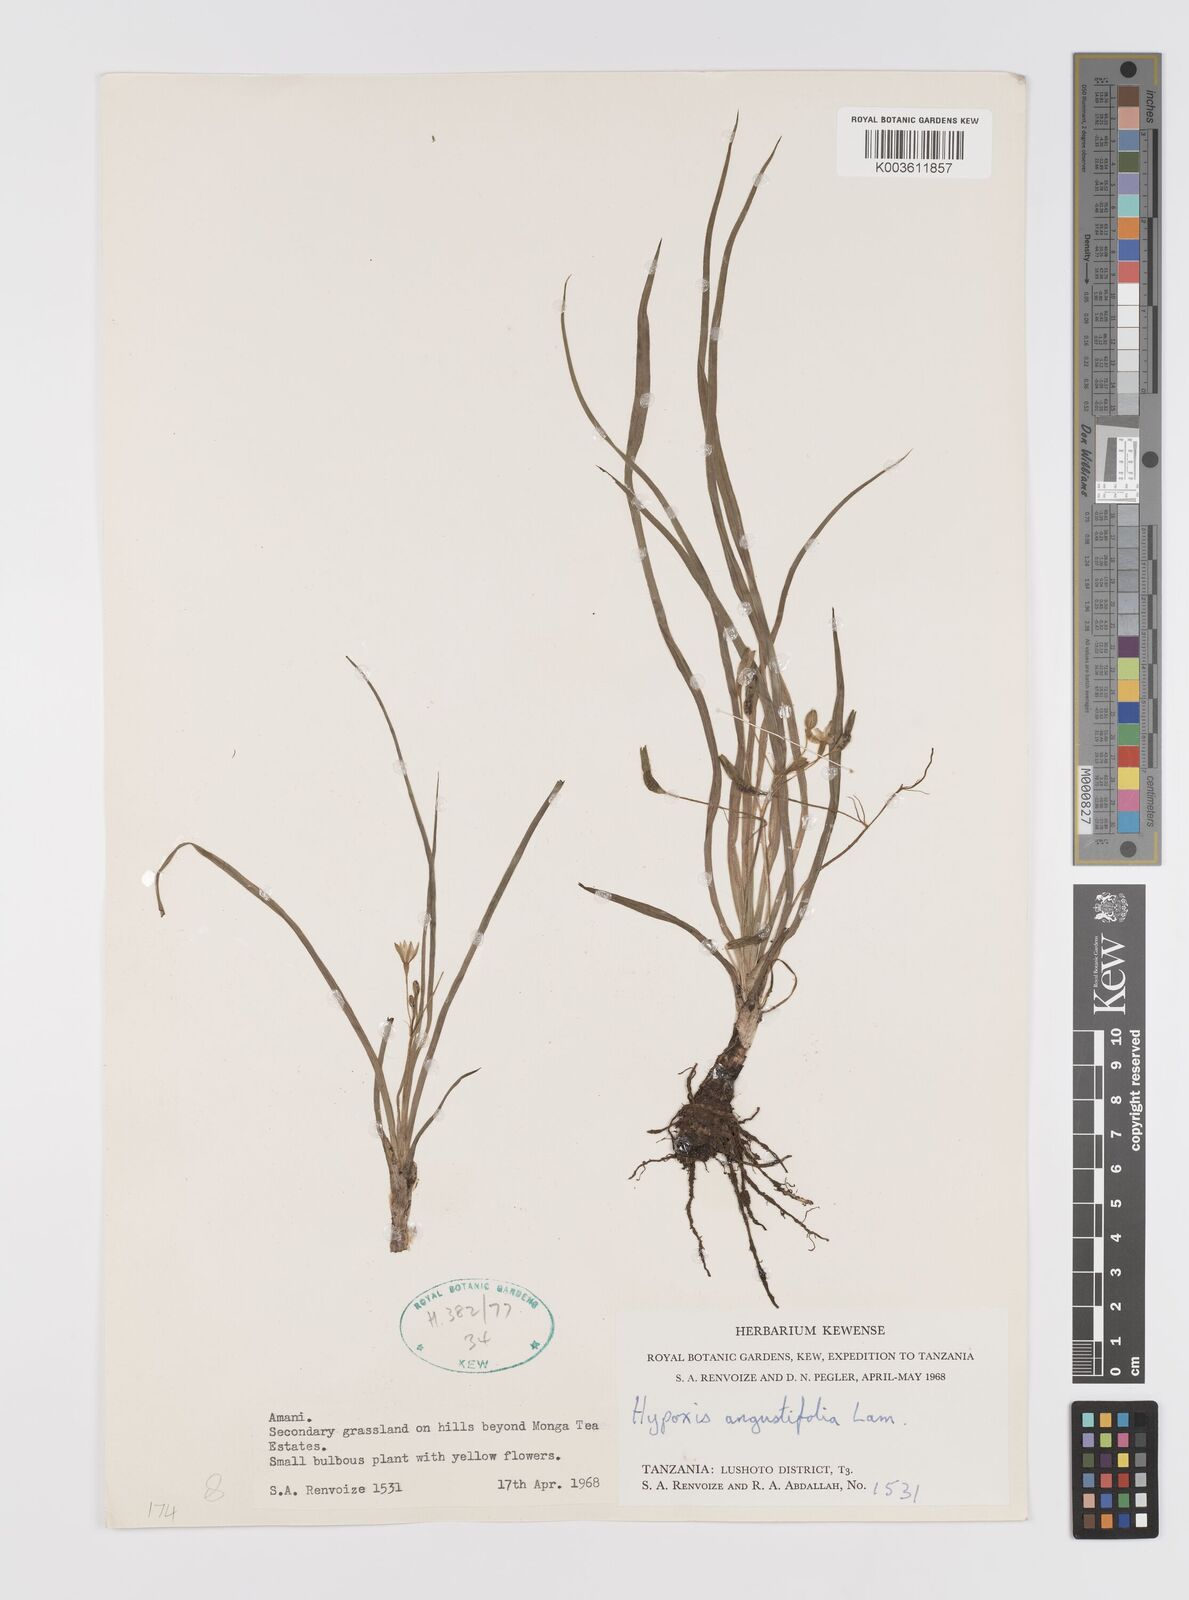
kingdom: Plantae
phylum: Tracheophyta
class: Liliopsida
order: Asparagales
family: Hypoxidaceae
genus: Hypoxis
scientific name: Hypoxis angustifolia
